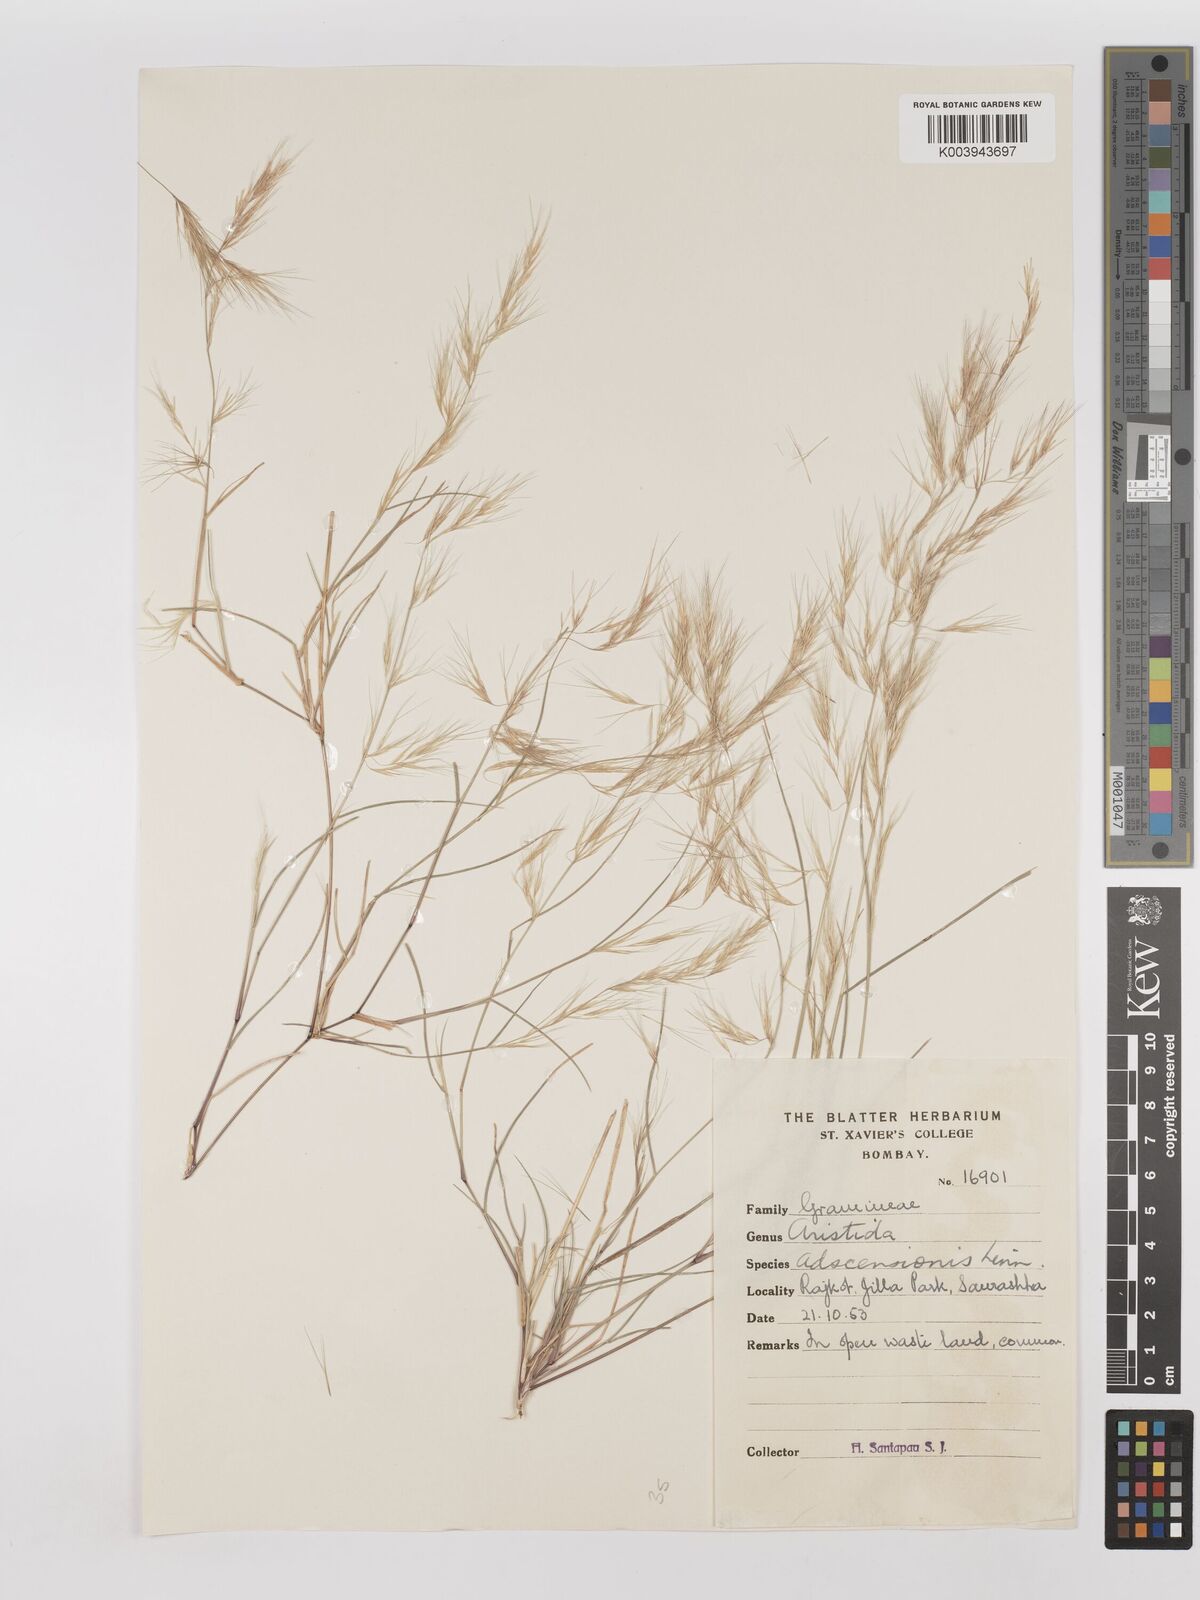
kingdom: Plantae
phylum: Tracheophyta
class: Liliopsida
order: Poales
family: Poaceae
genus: Aristida
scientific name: Aristida adscensionis
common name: Sixweeks threeawn
